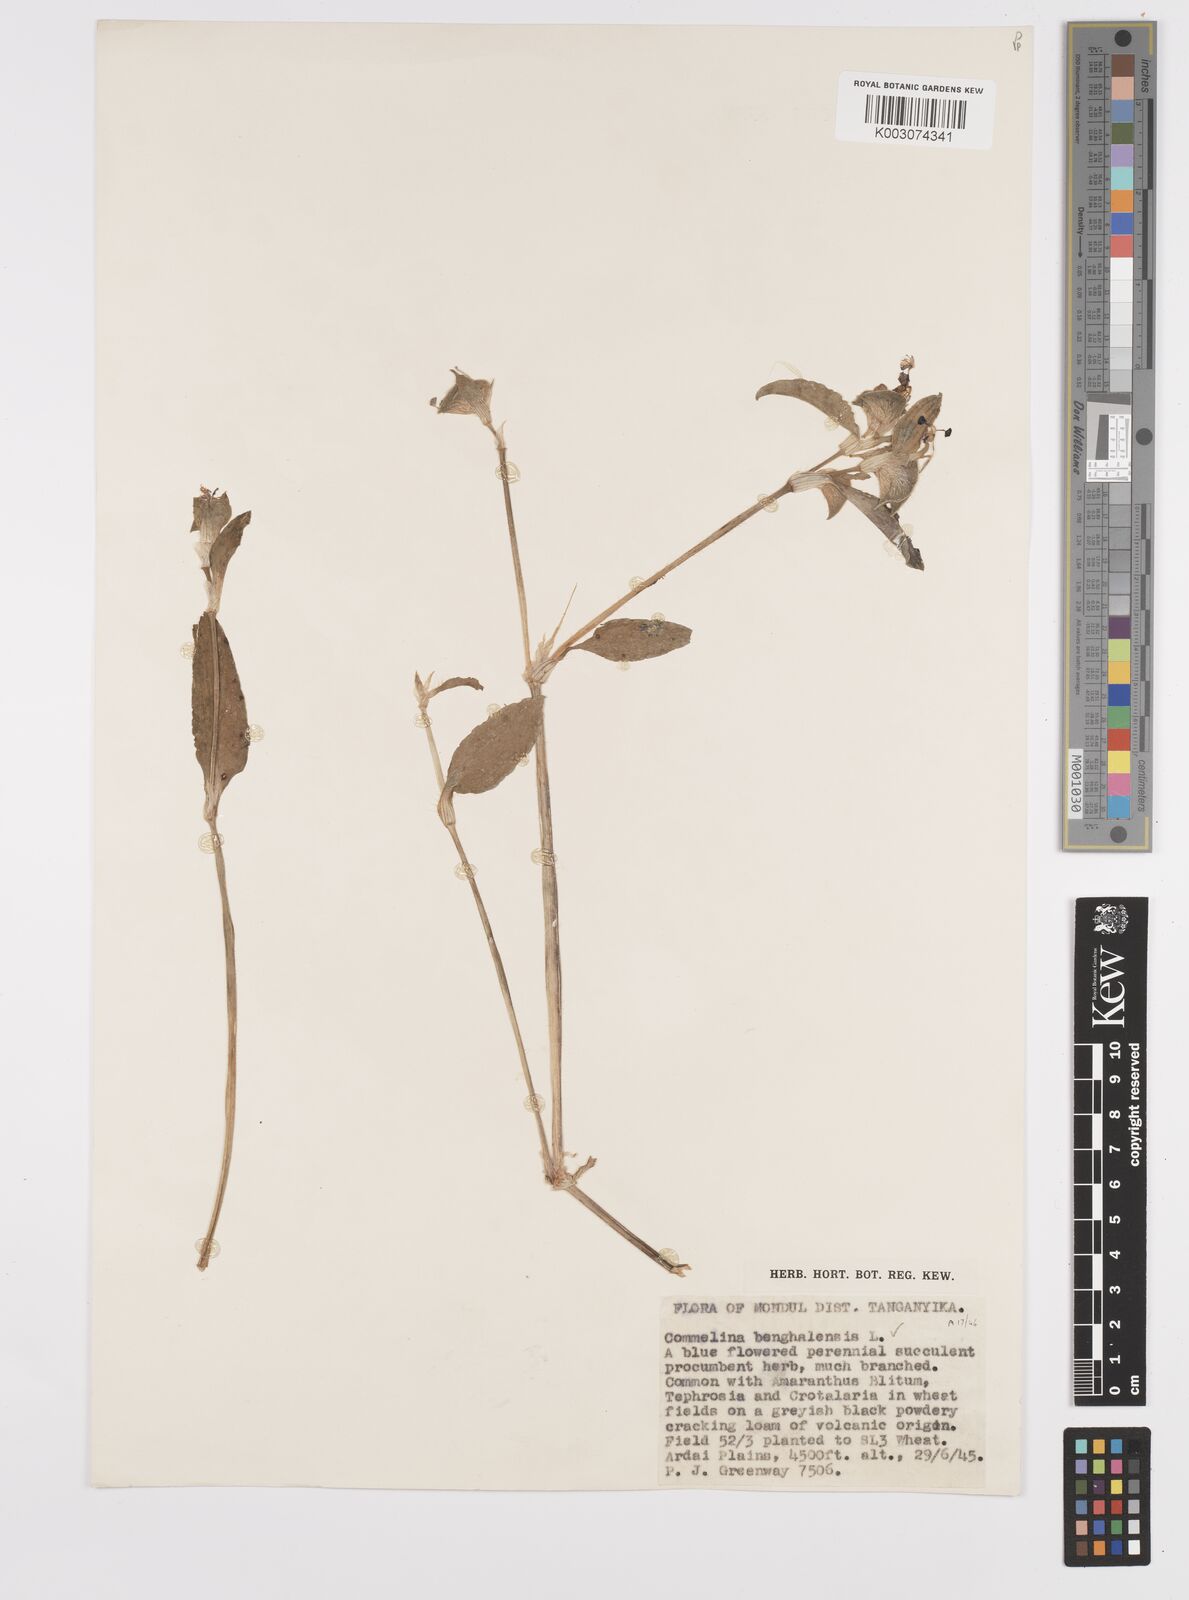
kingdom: Plantae
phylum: Tracheophyta
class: Liliopsida
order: Commelinales
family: Commelinaceae
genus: Commelina
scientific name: Commelina benghalensis
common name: Jio
